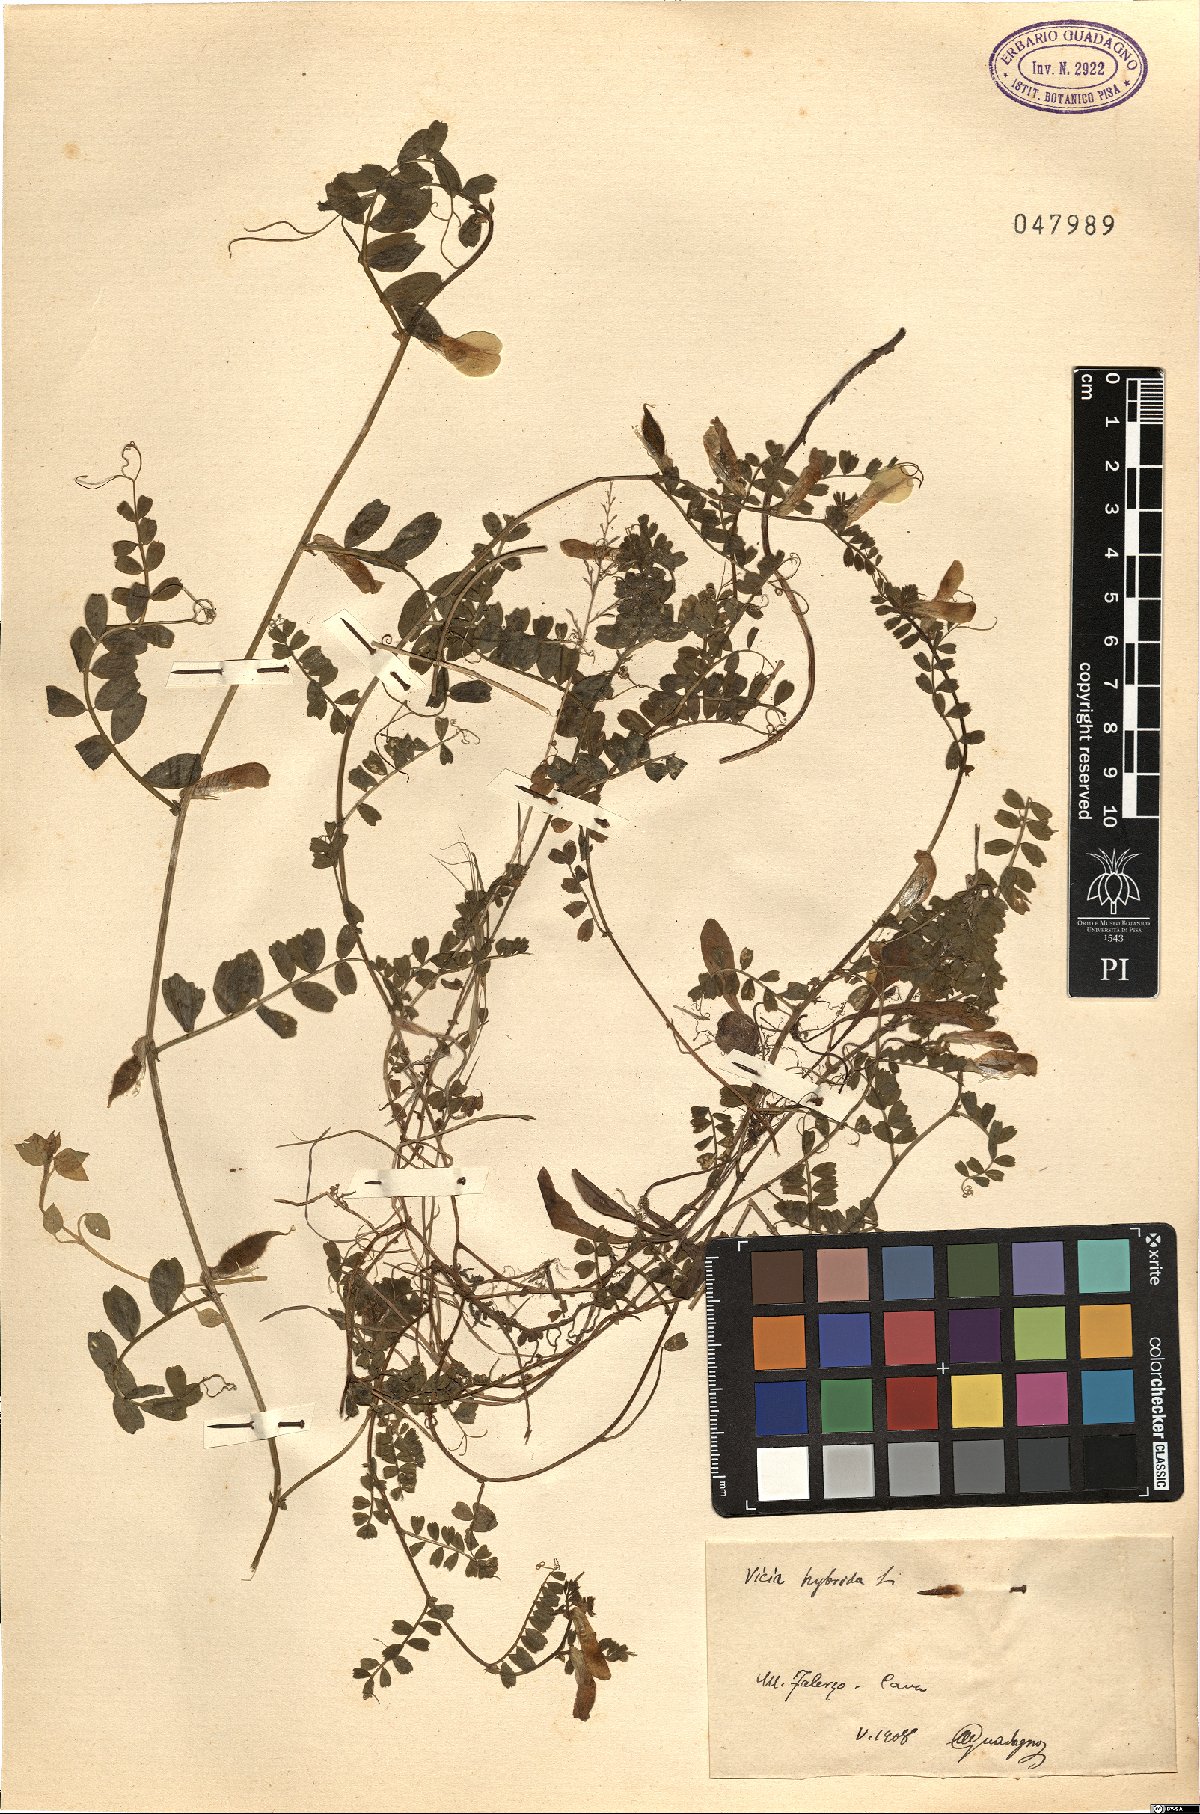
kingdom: Plantae
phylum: Tracheophyta
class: Magnoliopsida
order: Fabales
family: Fabaceae
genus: Vicia
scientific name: Vicia hybrida
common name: Hairy yellow vetch
